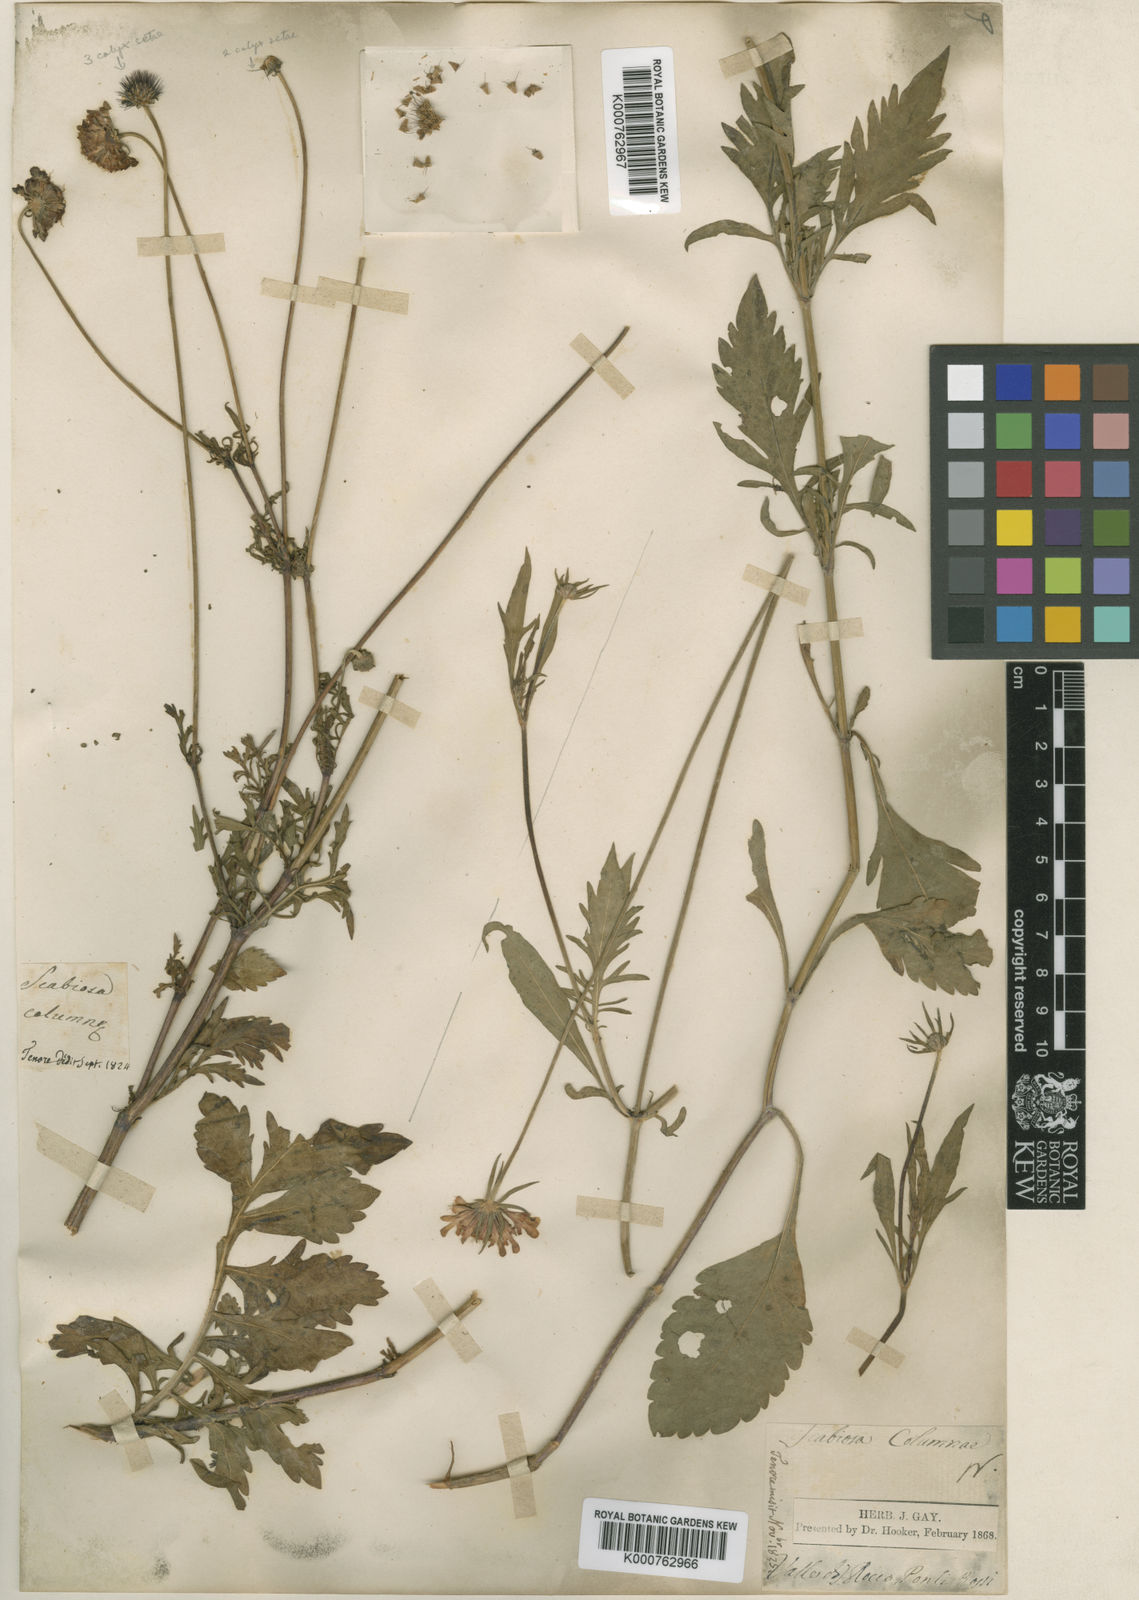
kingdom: Plantae
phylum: Tracheophyta
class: Magnoliopsida
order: Dipsacales
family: Caprifoliaceae
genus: Scabiosa
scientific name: Scabiosa triandra
